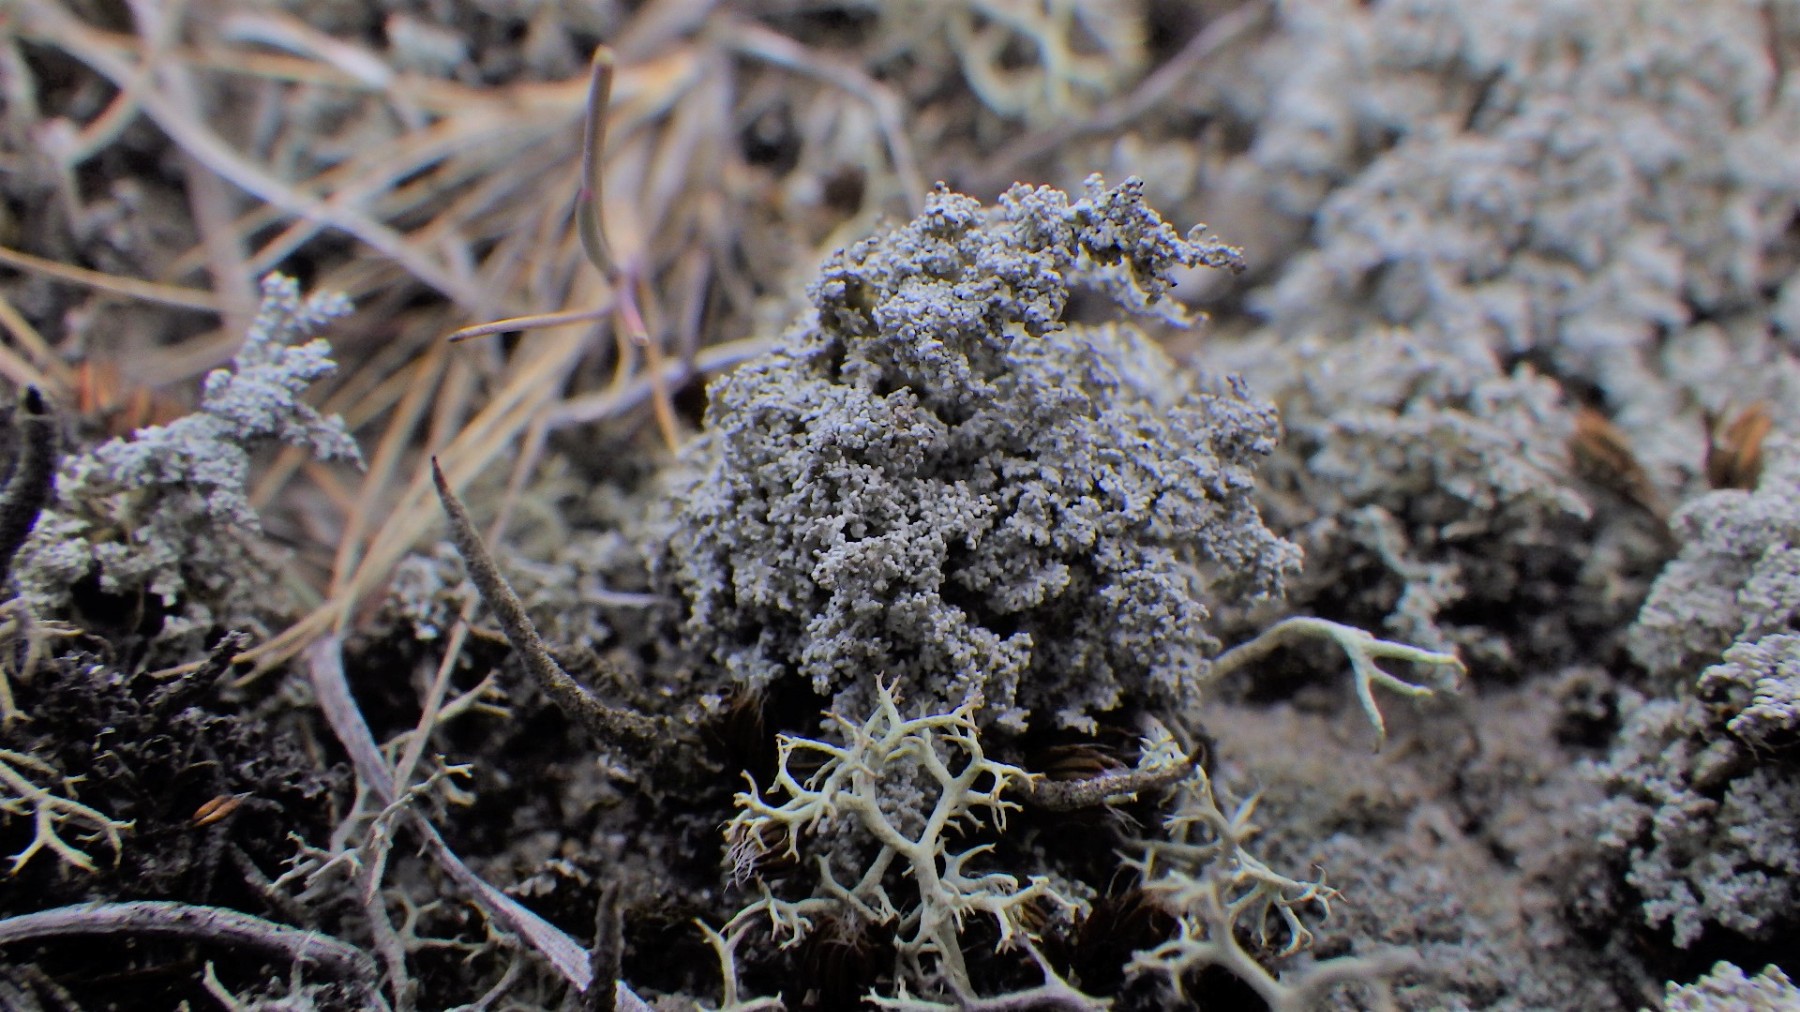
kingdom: Fungi
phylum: Ascomycota
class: Lecanoromycetes
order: Lecanorales
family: Stereocaulaceae
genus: Stereocaulon
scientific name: Stereocaulon saxatile
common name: klit-korallav
